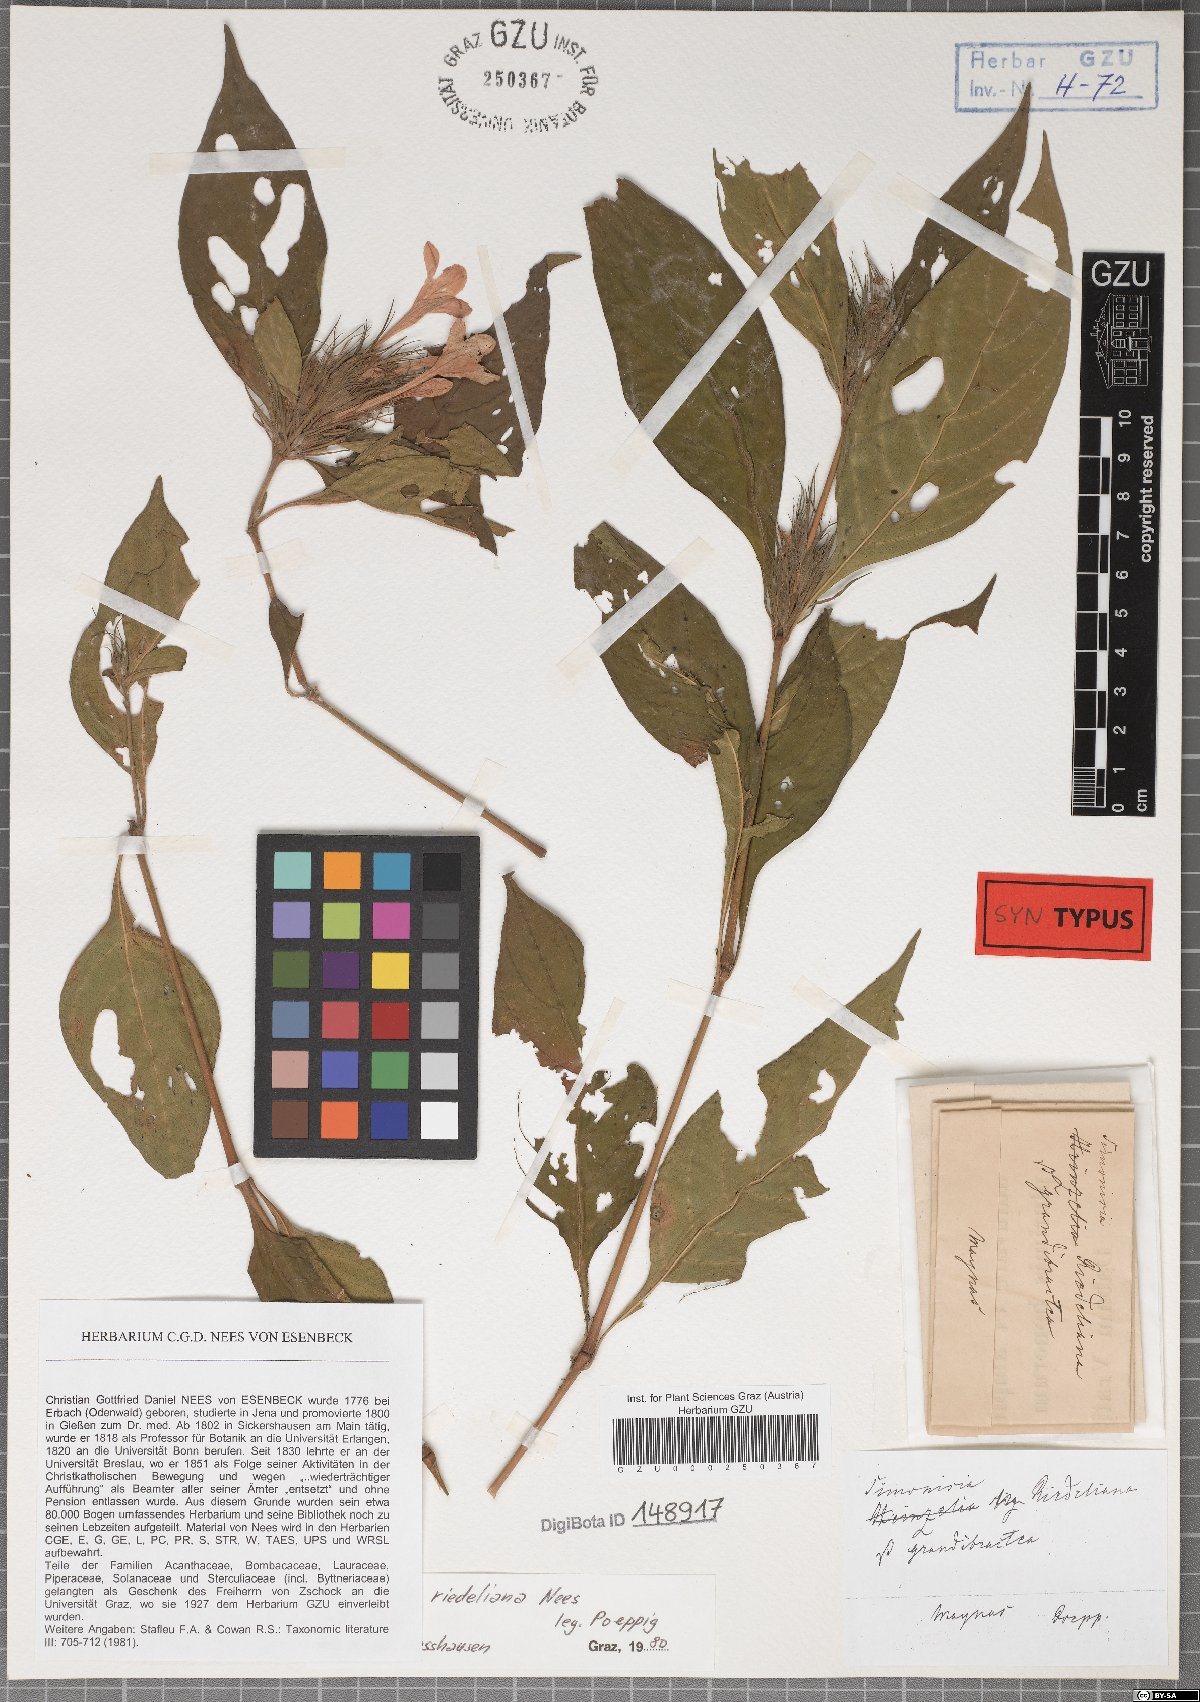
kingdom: Plantae
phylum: Tracheophyta
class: Magnoliopsida
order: Lamiales
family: Acanthaceae
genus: Justicia
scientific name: Justicia riedeliana
